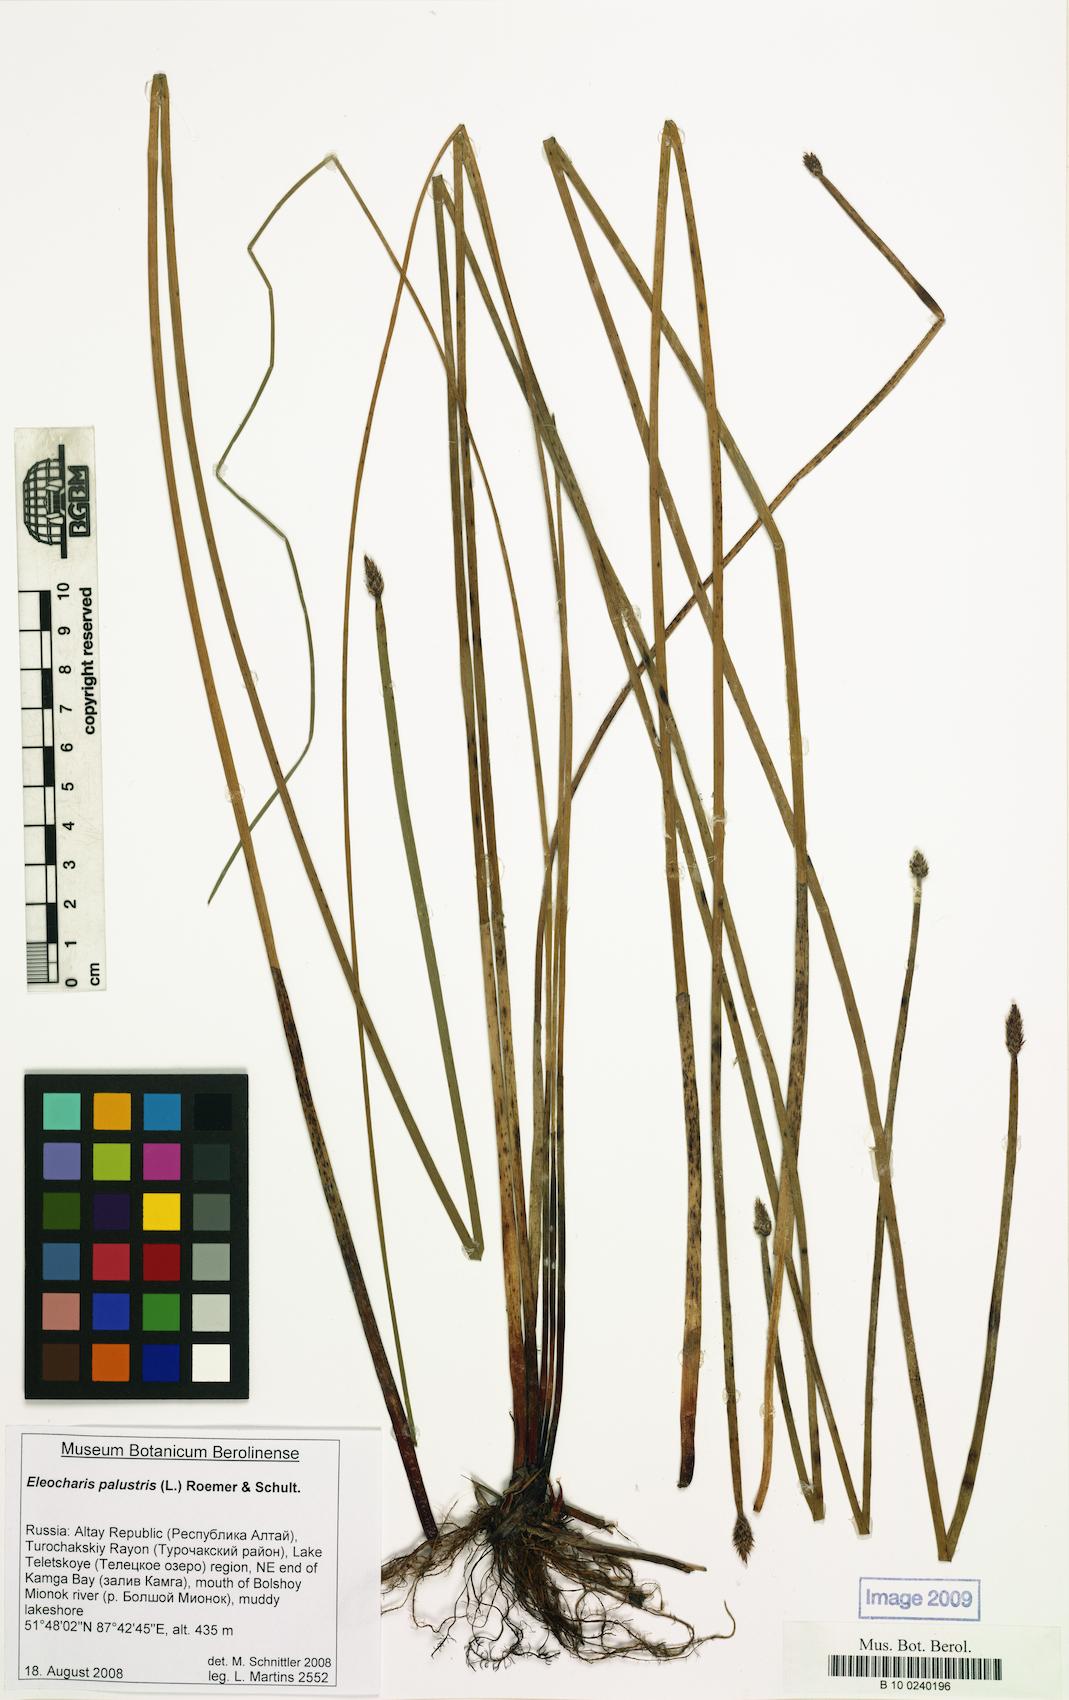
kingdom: Plantae
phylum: Tracheophyta
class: Liliopsida
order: Poales
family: Cyperaceae
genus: Eleocharis
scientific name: Eleocharis palustris
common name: Common spike-rush
